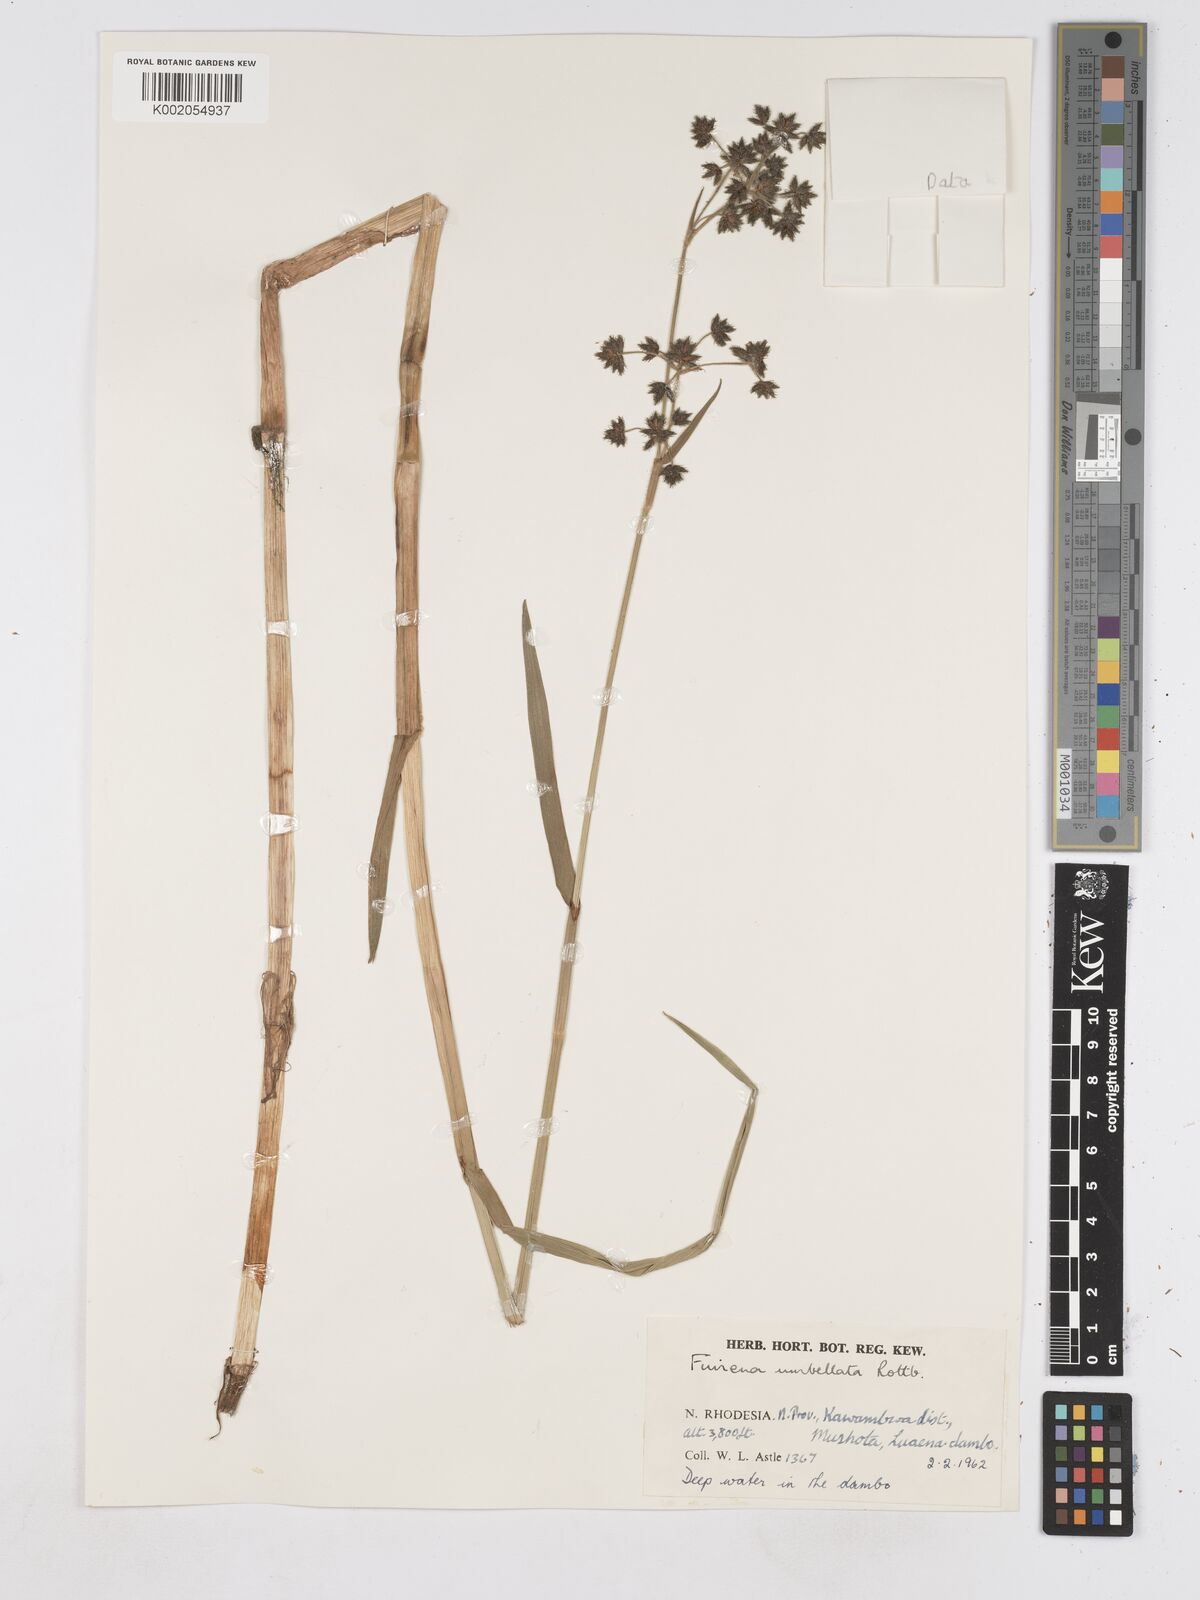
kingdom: Plantae
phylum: Tracheophyta
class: Liliopsida
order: Poales
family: Cyperaceae
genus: Fuirena
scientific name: Fuirena umbellata
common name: Yefen
